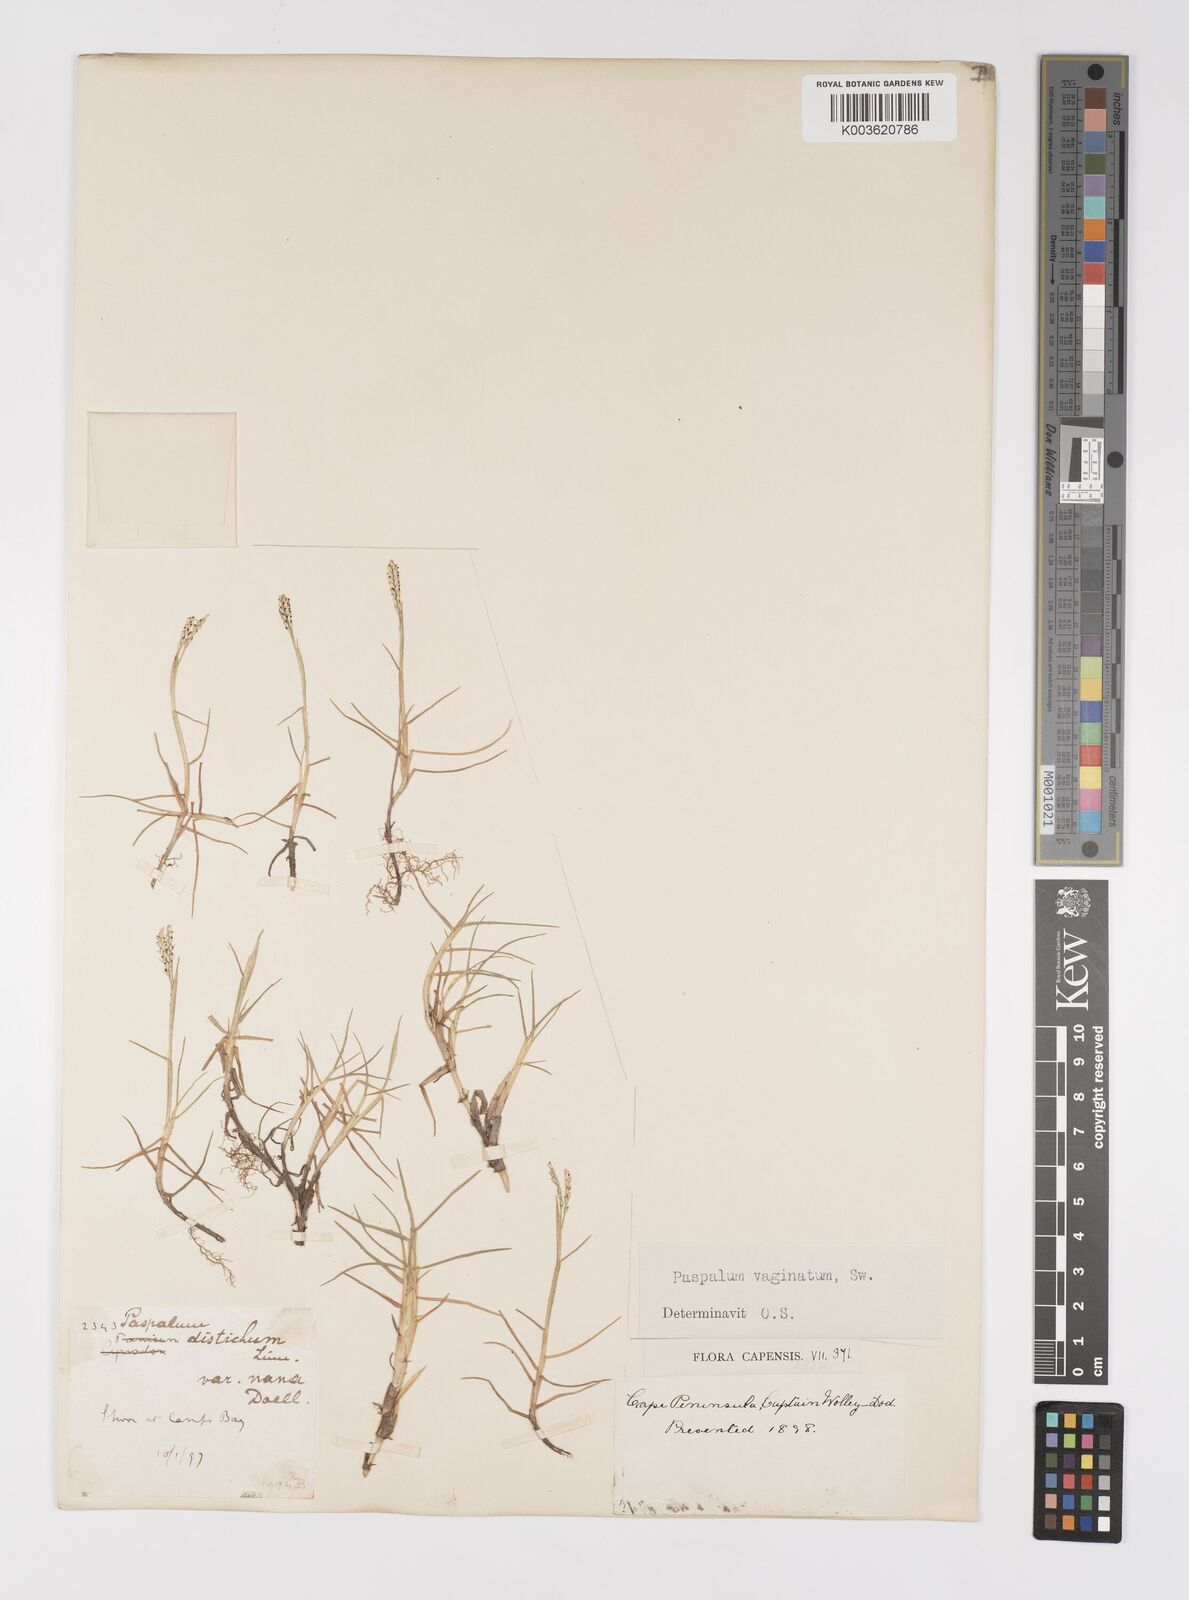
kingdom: Plantae
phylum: Tracheophyta
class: Liliopsida
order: Poales
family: Poaceae
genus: Paspalum
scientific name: Paspalum vaginatum
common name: Seashore paspalum
